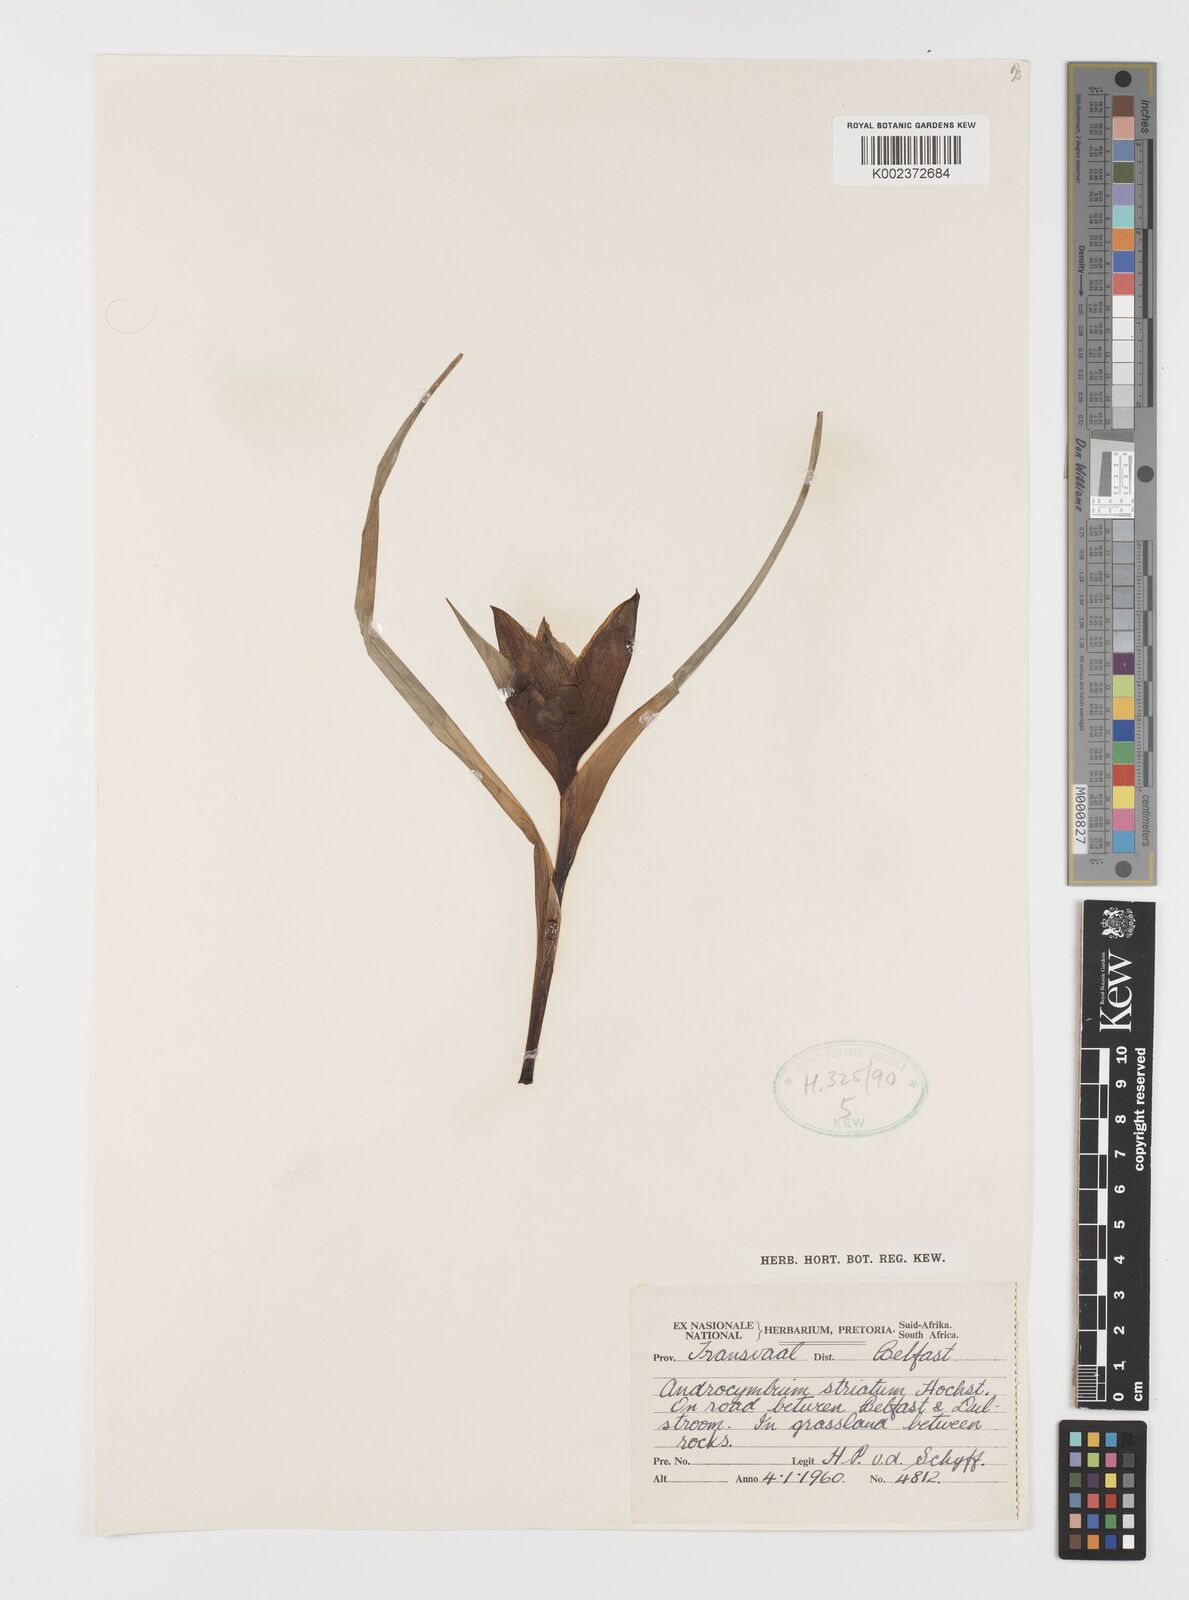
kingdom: Plantae
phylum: Tracheophyta
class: Liliopsida
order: Liliales
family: Colchicaceae
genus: Colchicum
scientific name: Colchicum striatum
